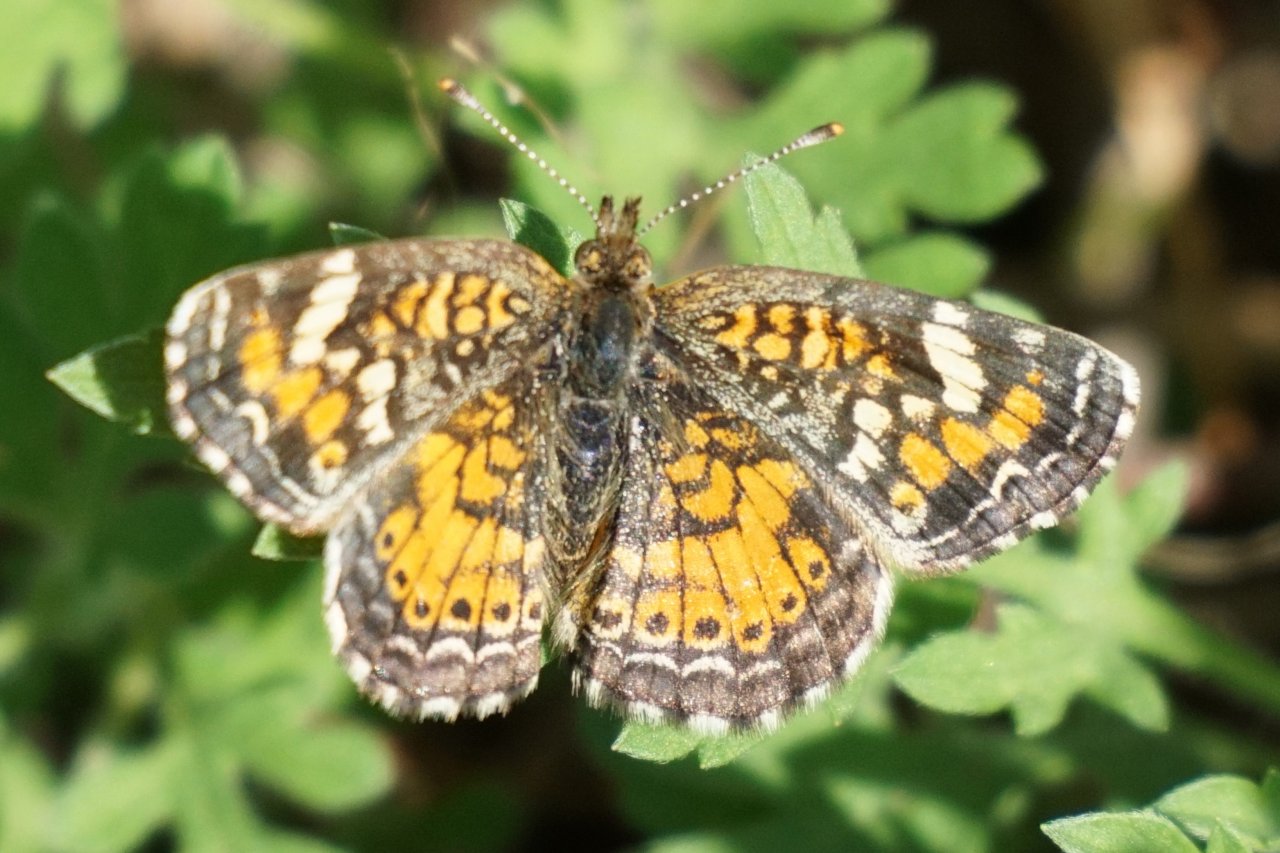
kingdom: Animalia
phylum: Arthropoda
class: Insecta
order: Lepidoptera
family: Nymphalidae
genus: Phyciodes
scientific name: Phyciodes phaon
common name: Phaon Crescent
